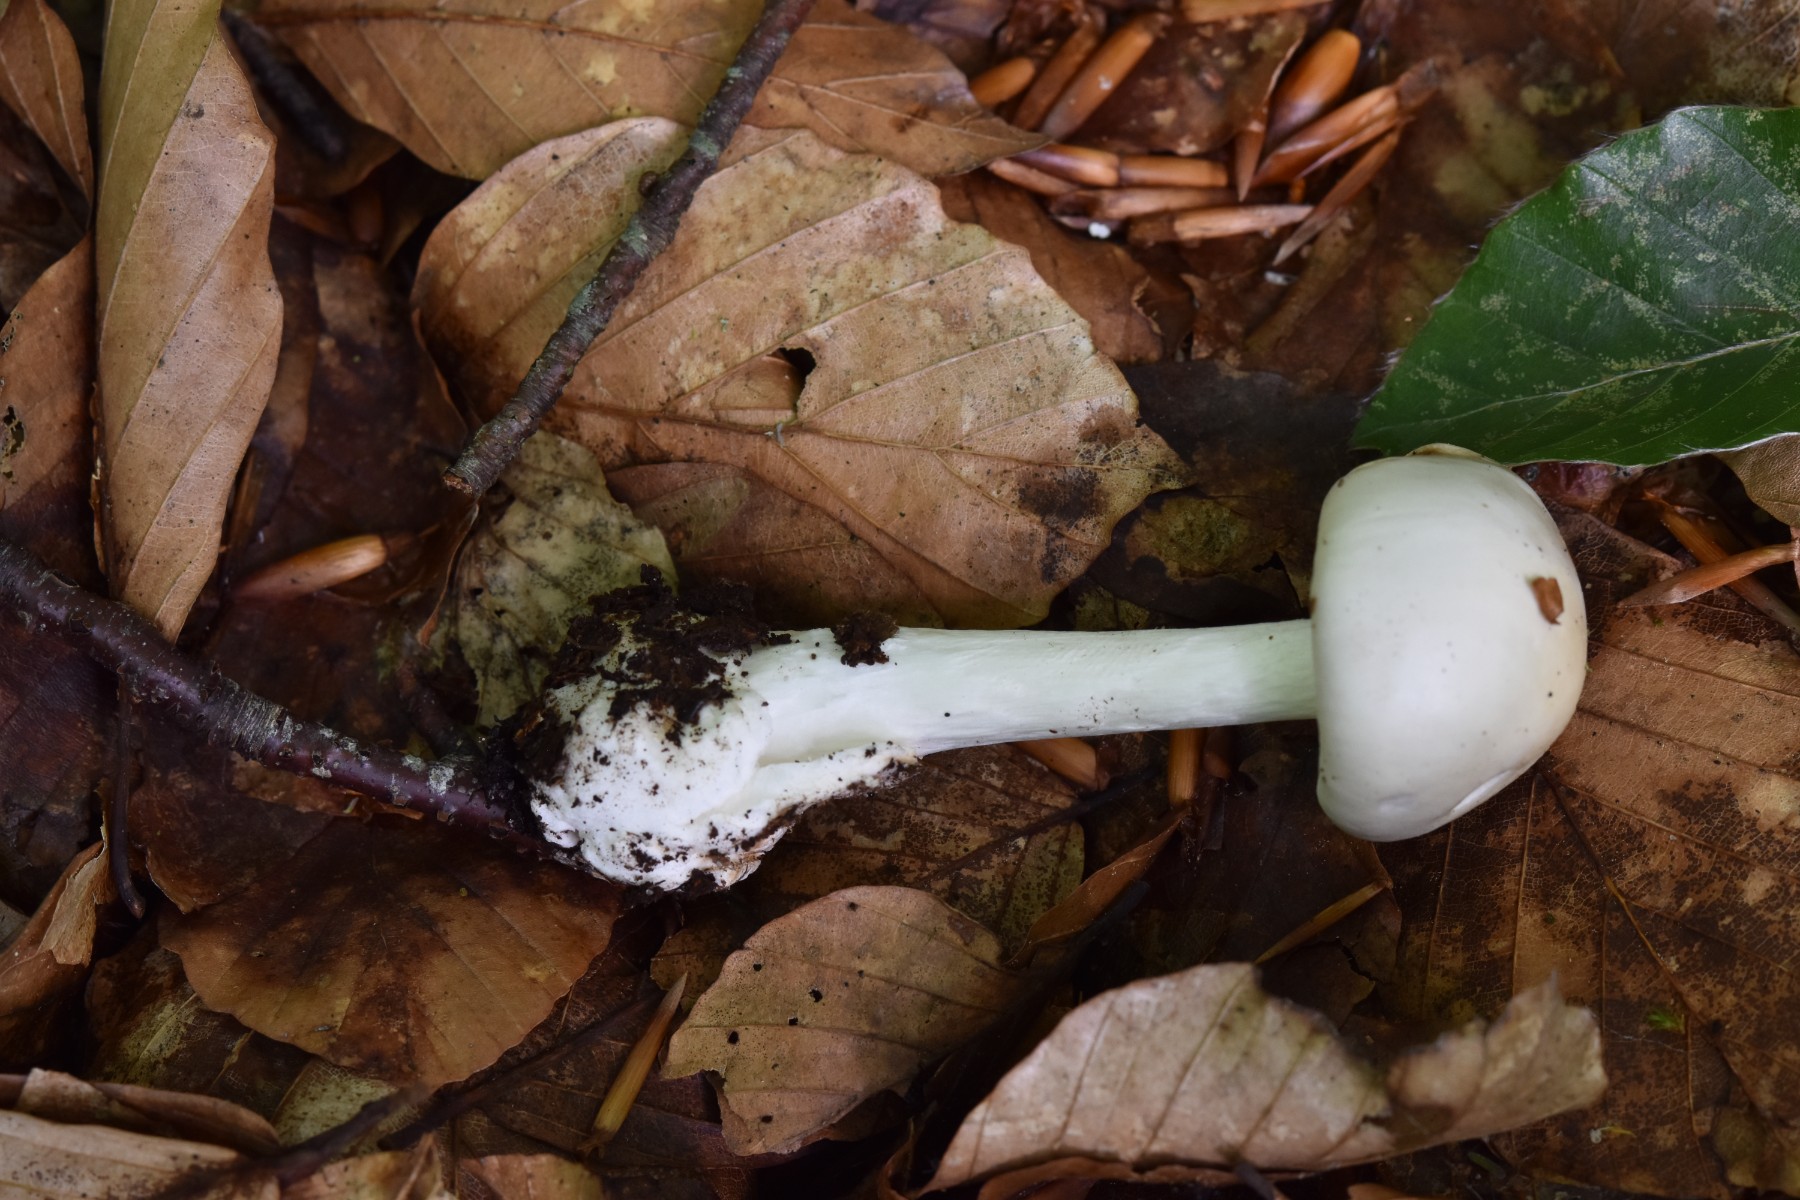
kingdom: Fungi
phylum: Basidiomycota
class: Agaricomycetes
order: Agaricales
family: Amanitaceae
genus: Amanita
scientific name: Amanita virosa
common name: snehvid fluesvamp
